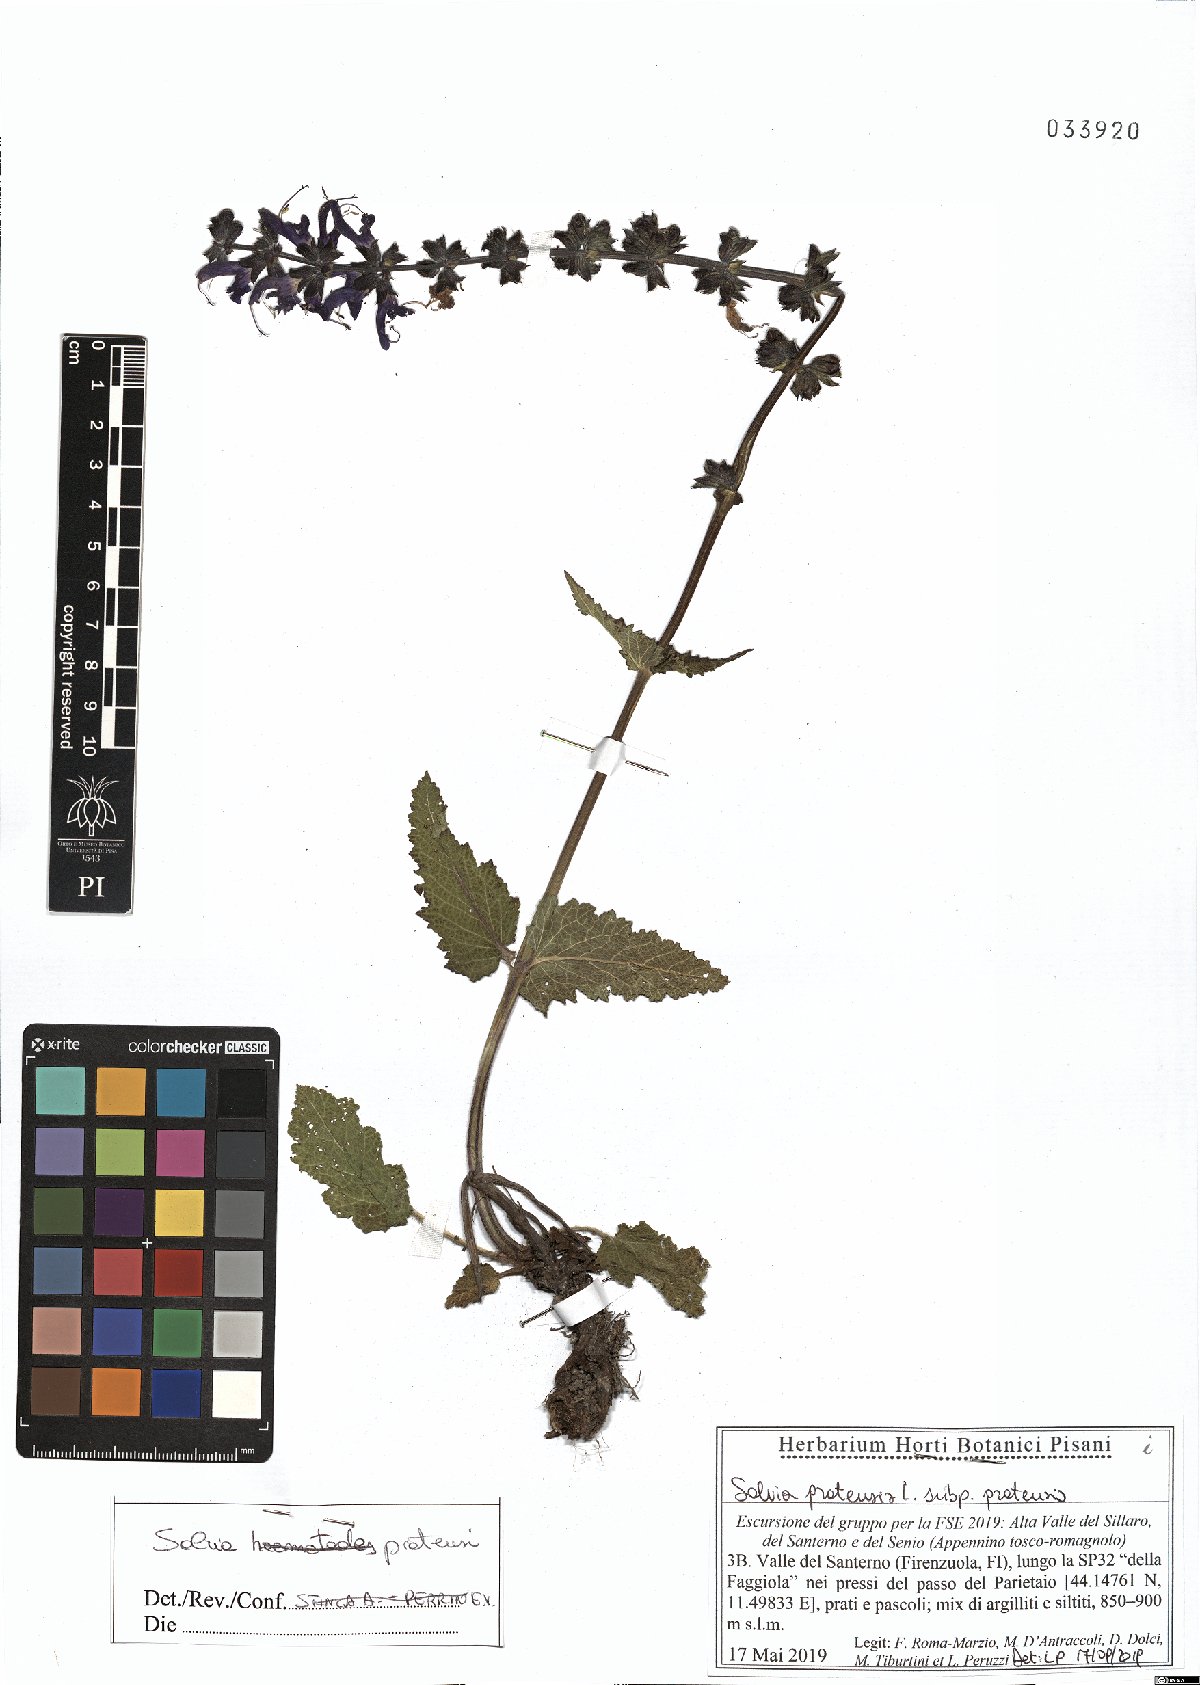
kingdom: Plantae
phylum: Tracheophyta
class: Magnoliopsida
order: Lamiales
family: Lamiaceae
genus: Salvia
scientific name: Salvia pratensis
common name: Meadow sage
